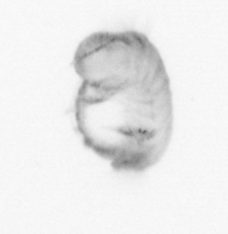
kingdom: Animalia
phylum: Annelida
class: Polychaeta
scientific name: Polychaeta
